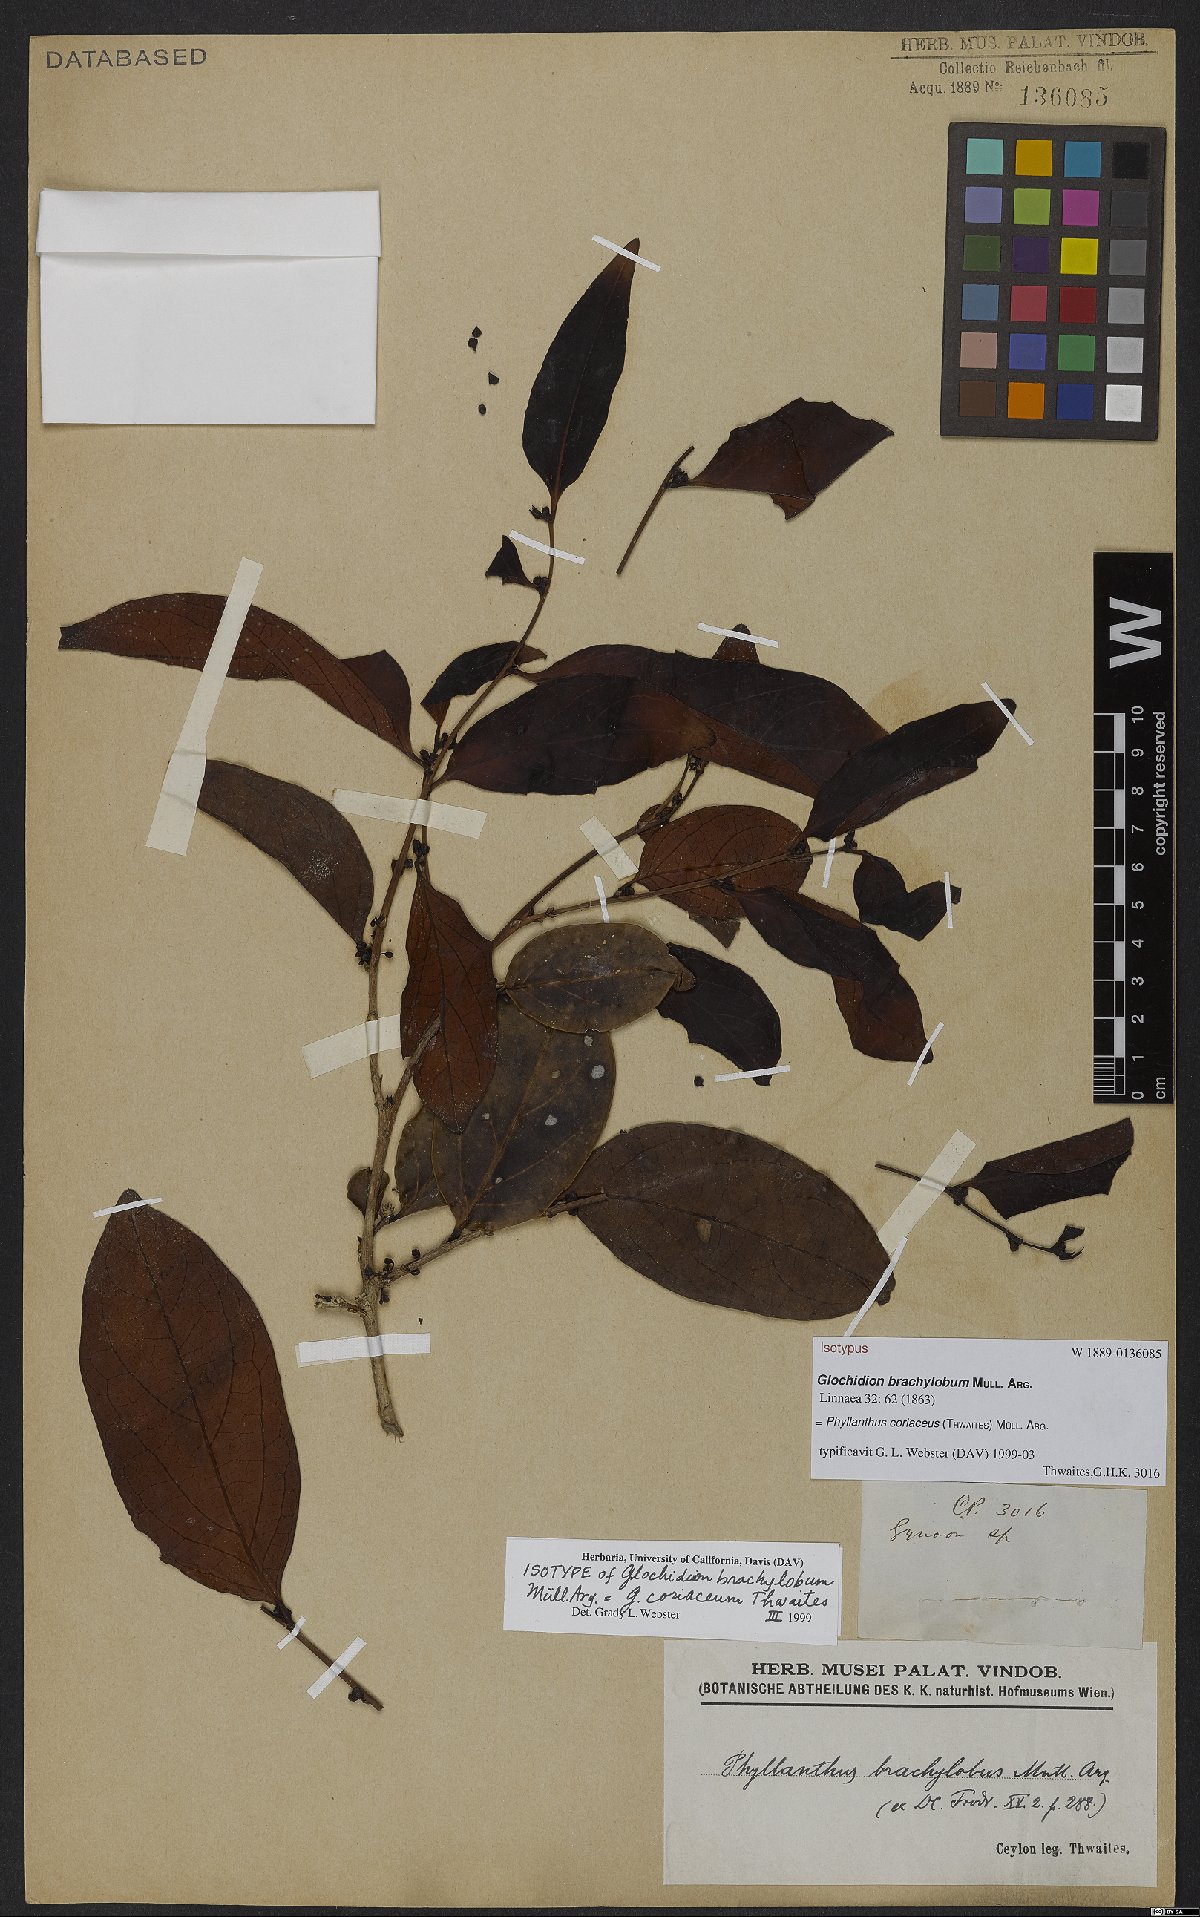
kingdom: Plantae
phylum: Tracheophyta
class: Magnoliopsida
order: Malpighiales
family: Phyllanthaceae
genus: Glochidion
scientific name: Glochidion coriaceum
